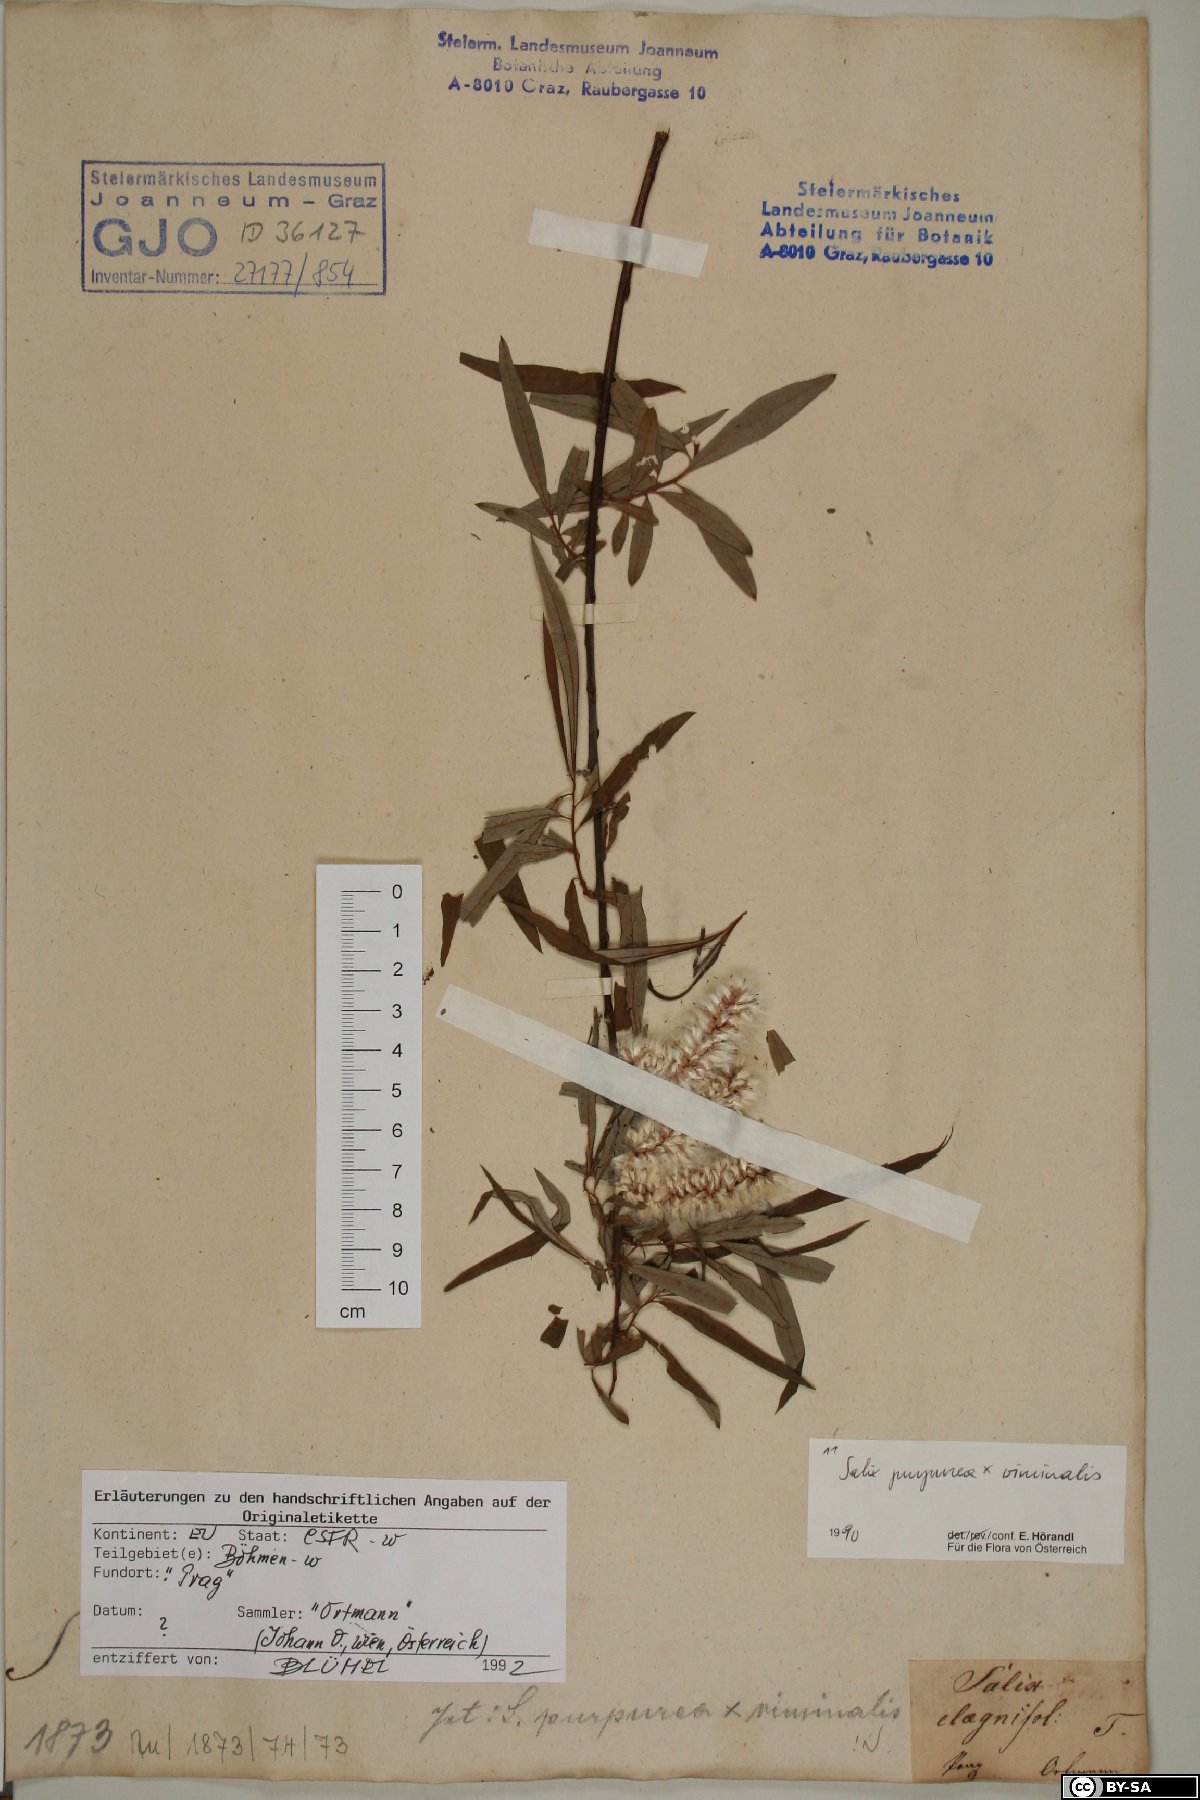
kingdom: Plantae
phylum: Tracheophyta
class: Magnoliopsida
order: Malpighiales
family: Salicaceae
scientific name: Salicaceae
